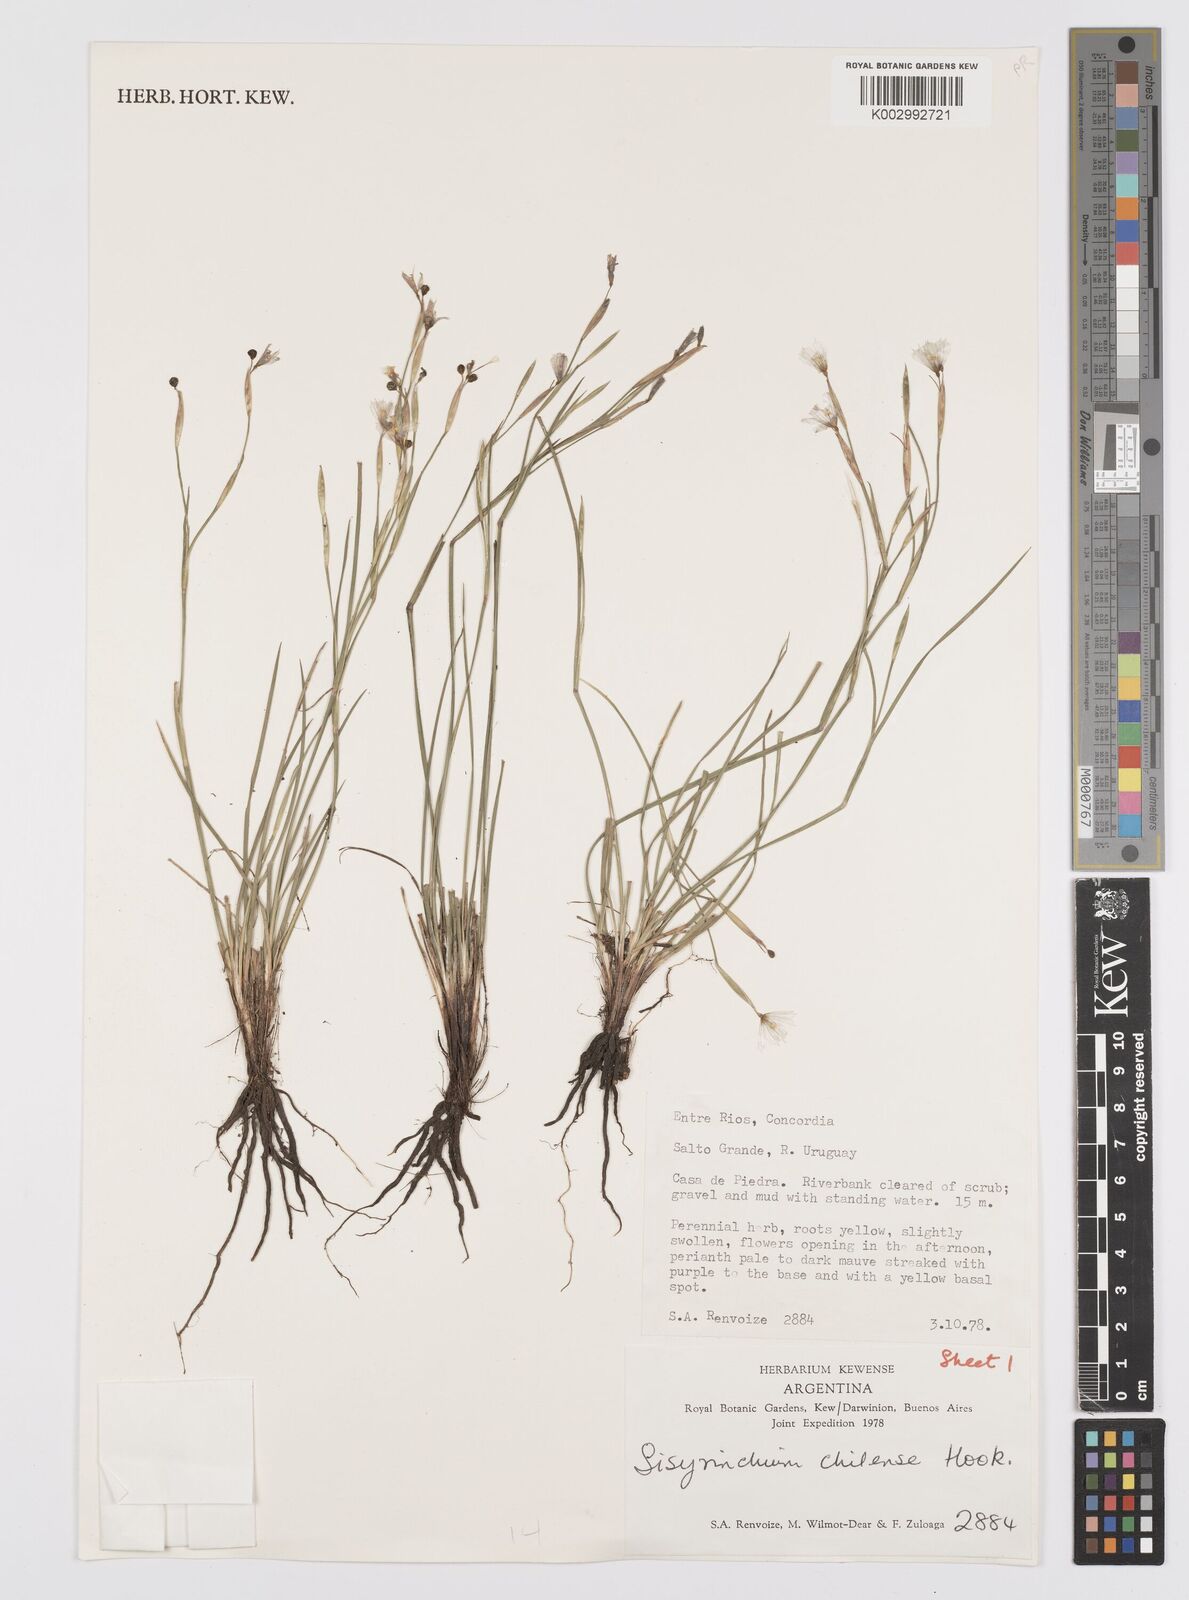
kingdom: Plantae
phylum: Tracheophyta
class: Liliopsida
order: Asparagales
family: Iridaceae
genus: Sisyrinchium
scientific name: Sisyrinchium chilense
